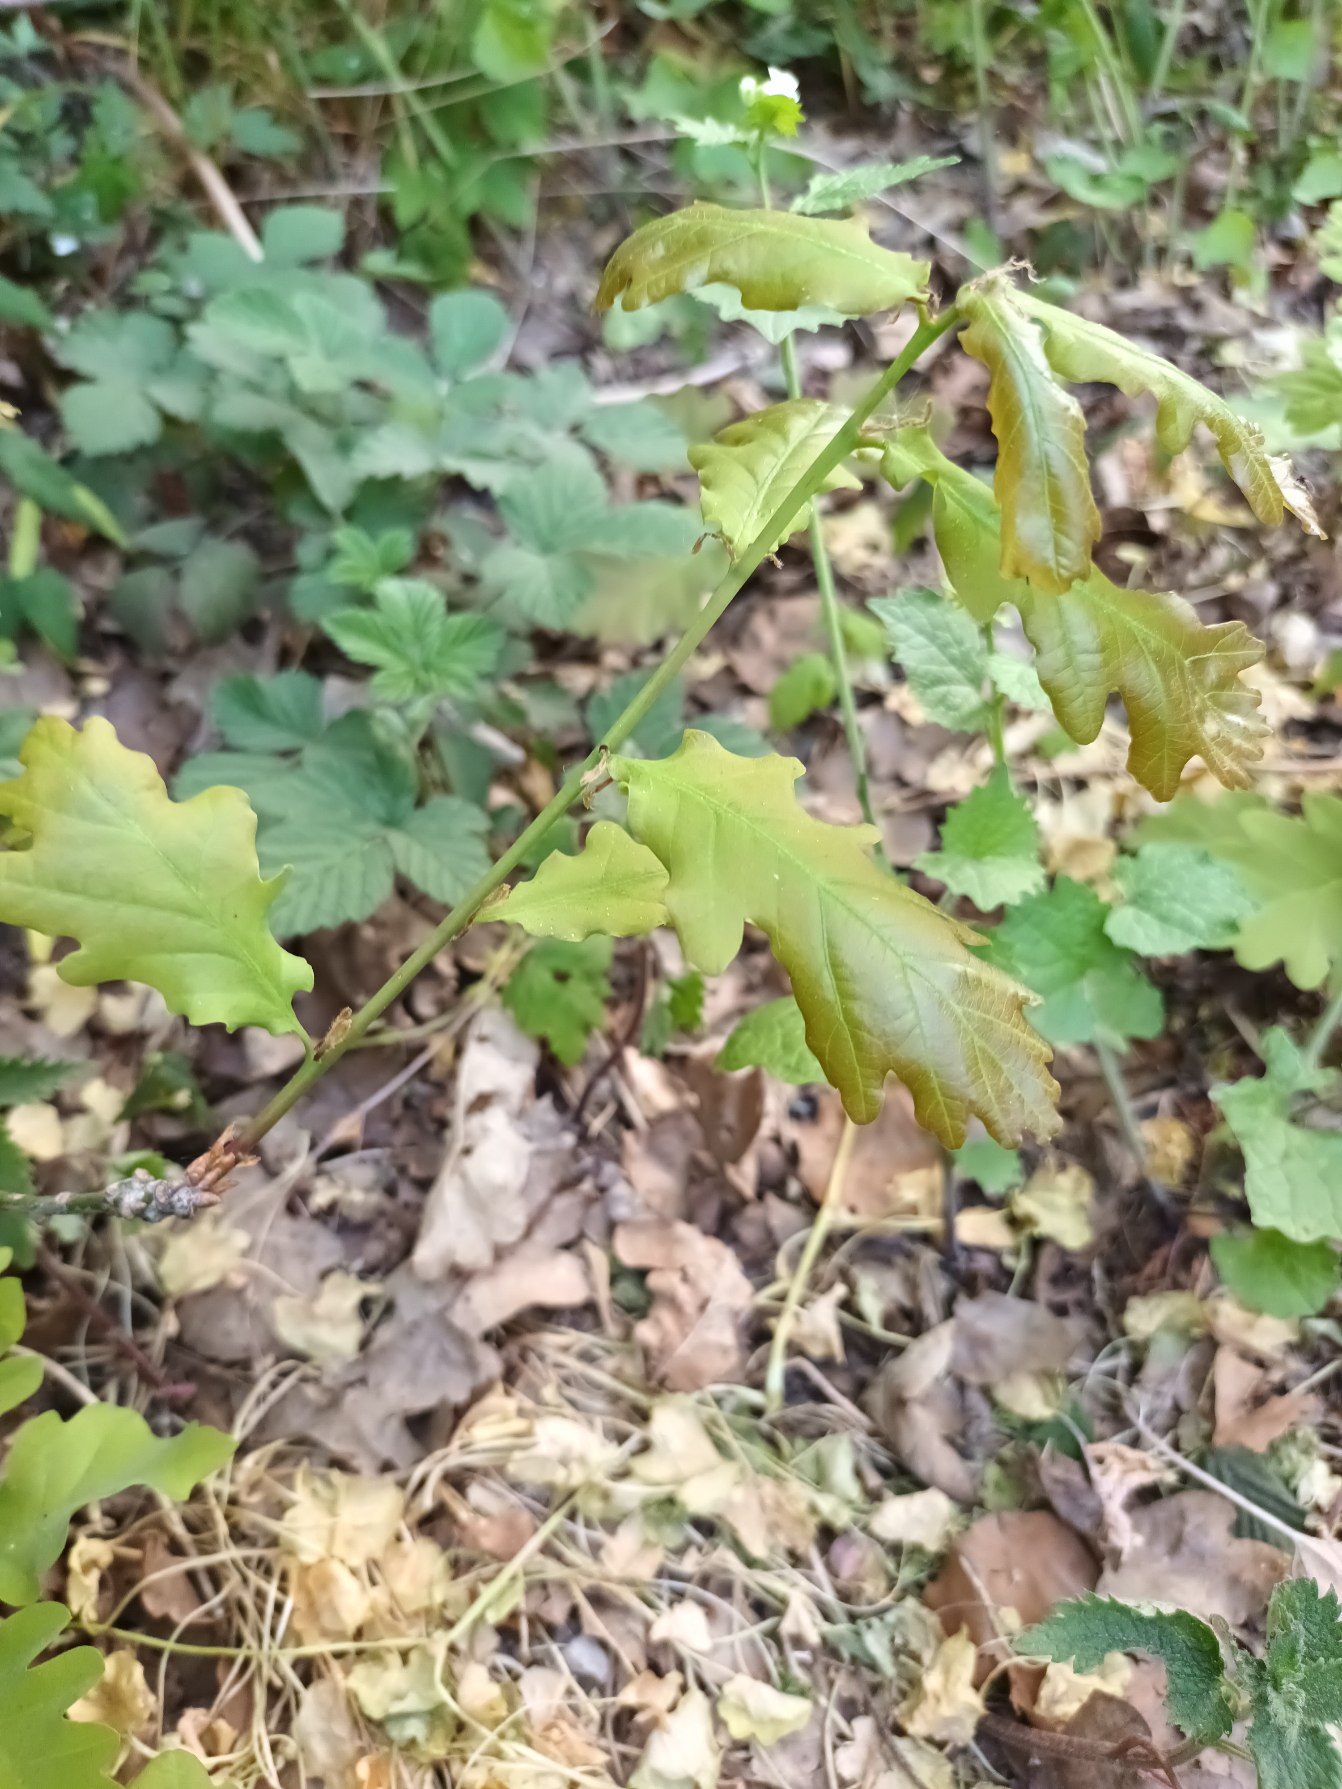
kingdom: Plantae
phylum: Tracheophyta
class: Magnoliopsida
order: Fagales
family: Fagaceae
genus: Quercus
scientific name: Quercus robur
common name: Stilk-eg/almindelig eg
